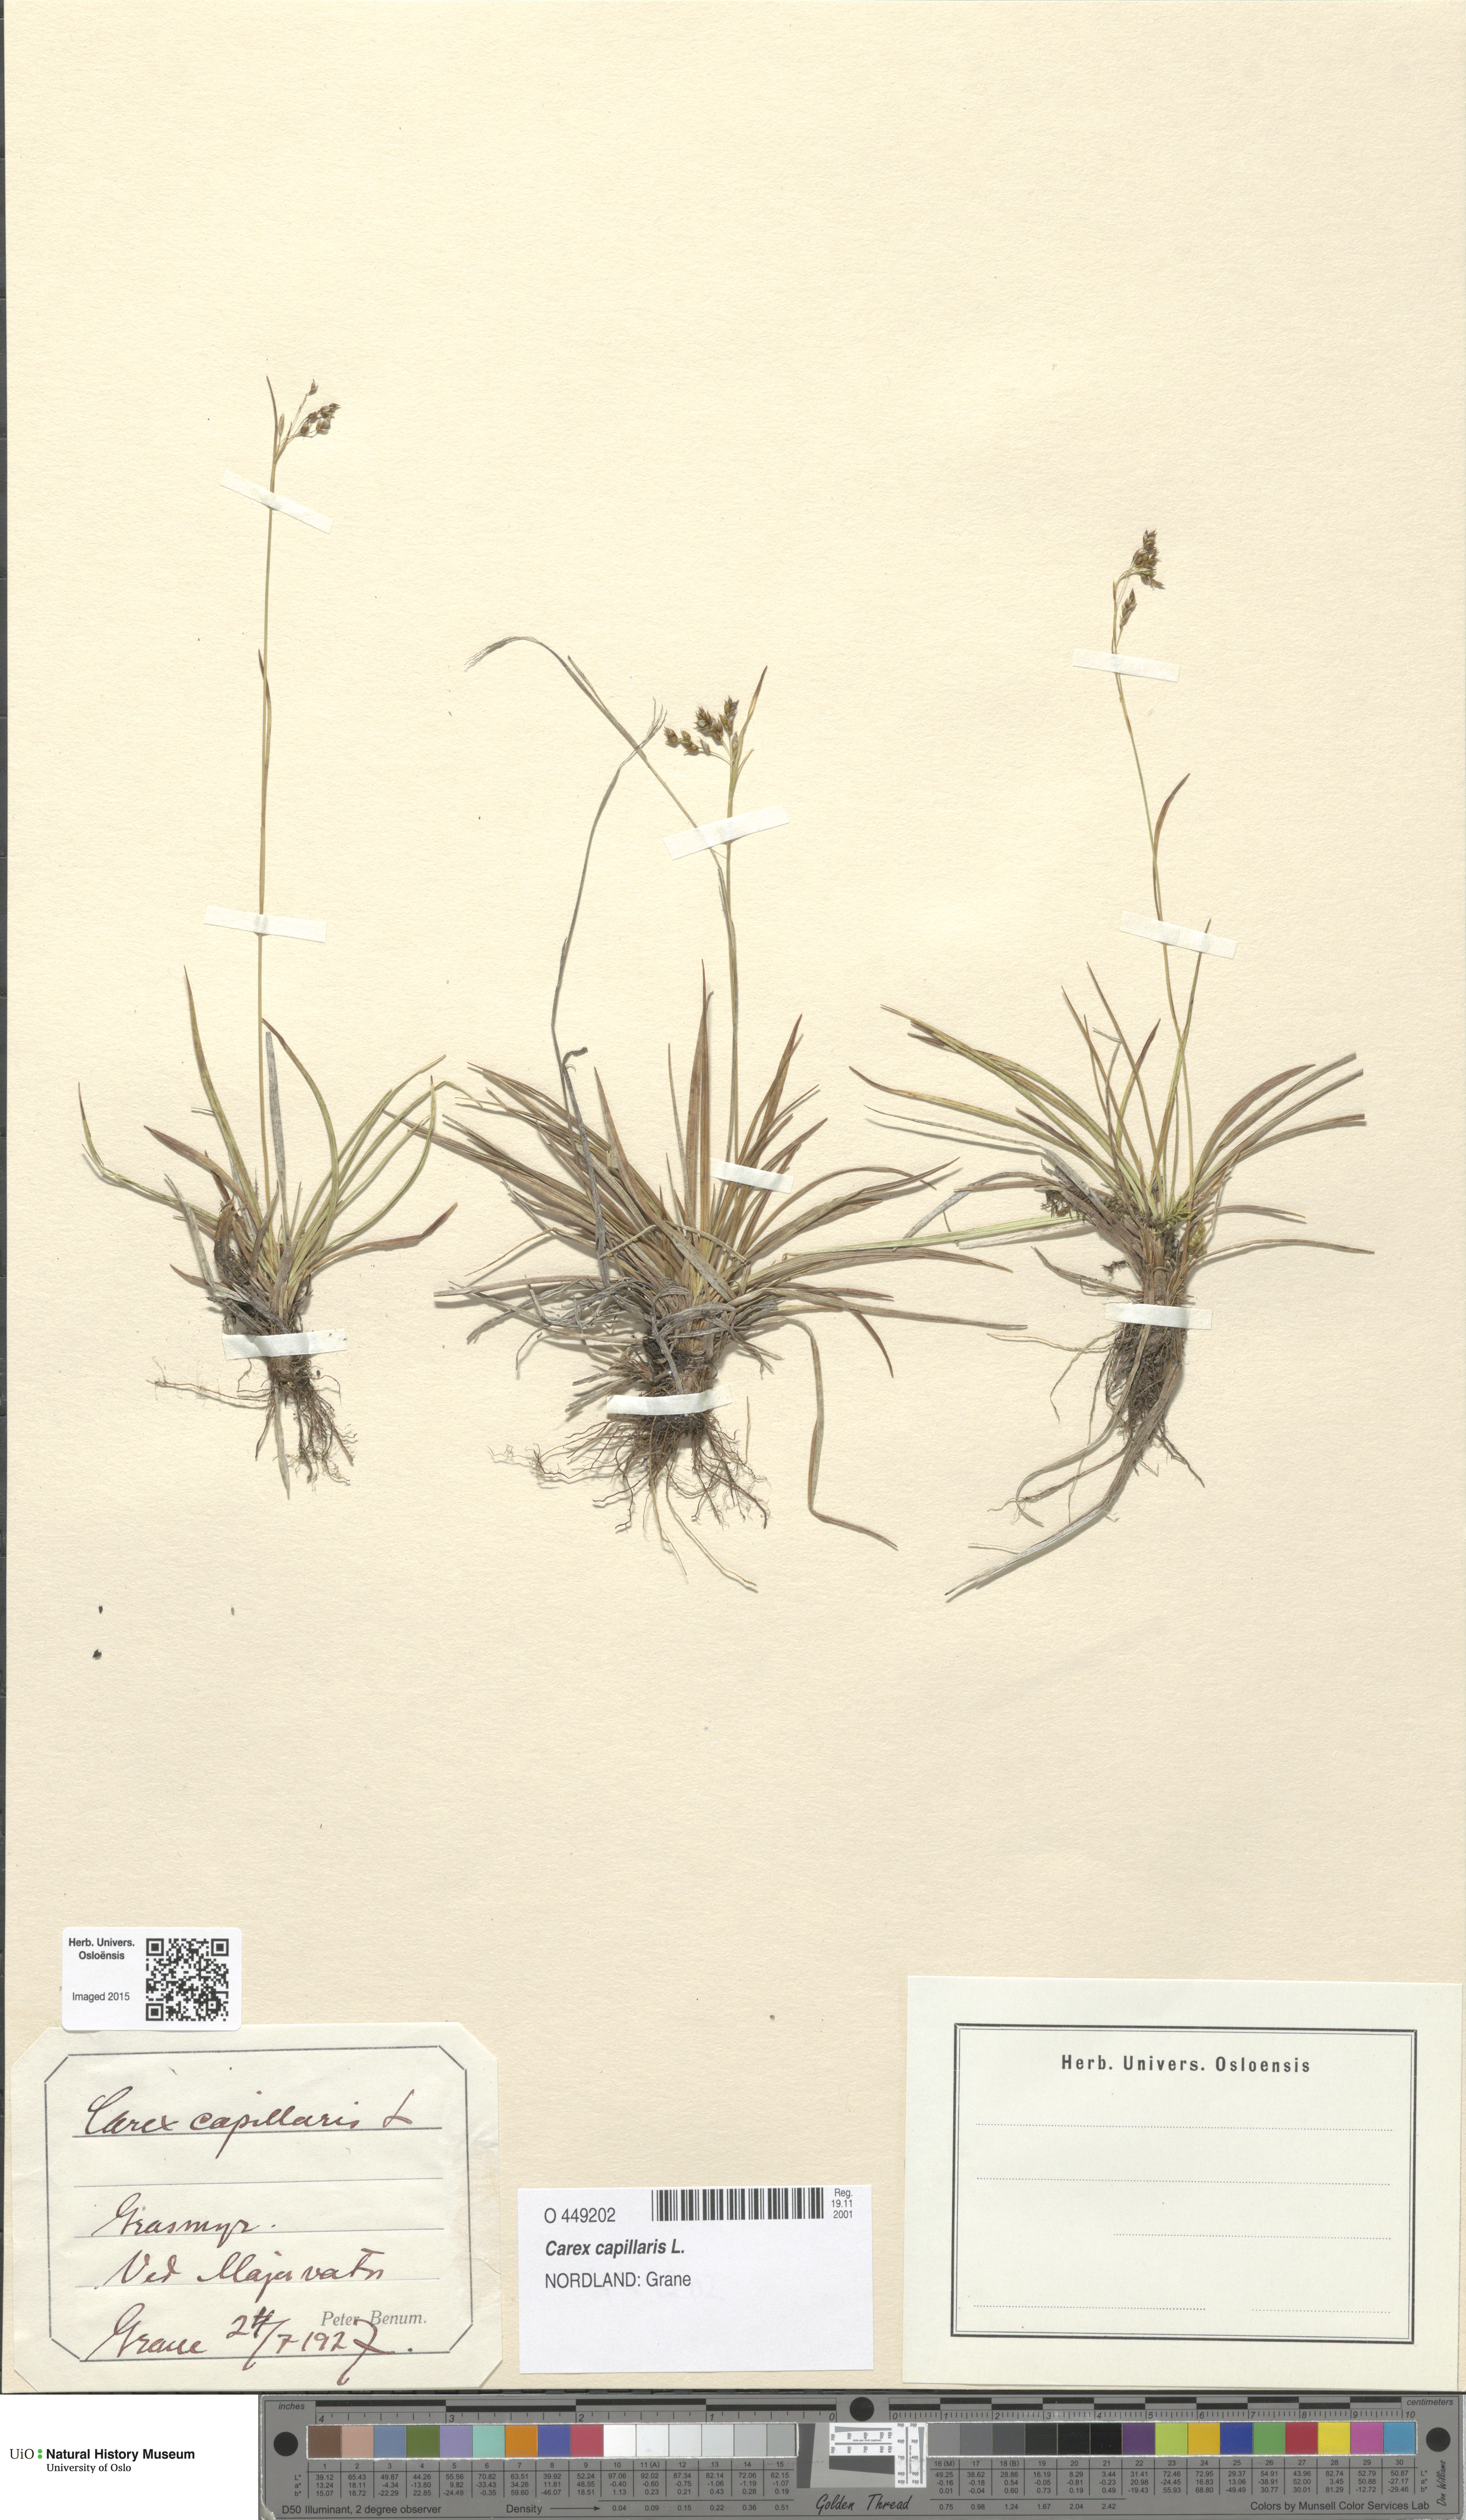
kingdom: Plantae
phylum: Tracheophyta
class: Liliopsida
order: Poales
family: Cyperaceae
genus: Carex
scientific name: Carex capillaris
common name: Hair sedge
